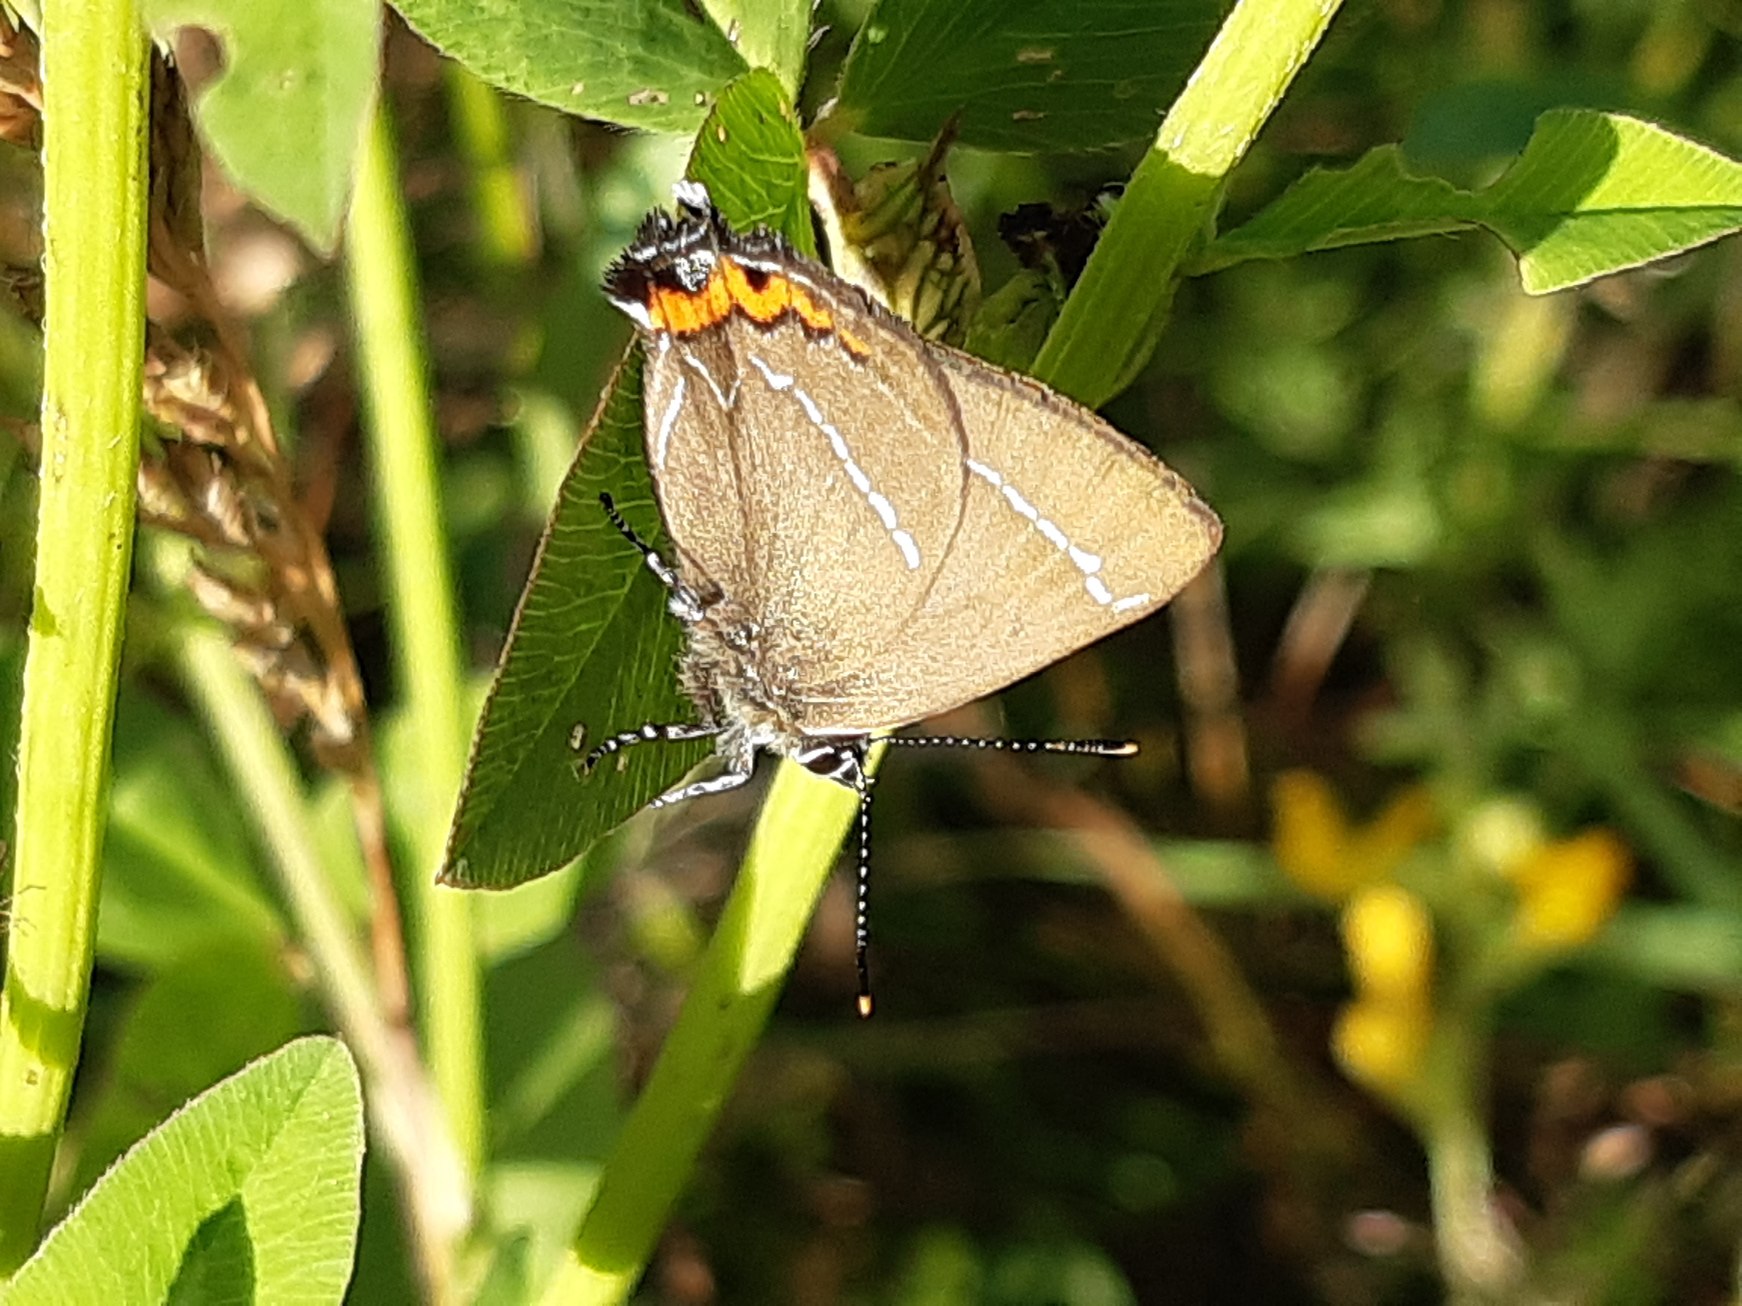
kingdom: Animalia
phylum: Arthropoda
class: Insecta
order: Lepidoptera
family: Lycaenidae
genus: Satyrium
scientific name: Satyrium w-album
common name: Det hvide W
